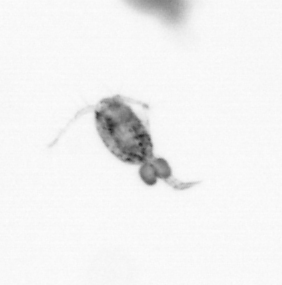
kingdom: Animalia
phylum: Arthropoda
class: Copepoda
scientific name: Copepoda
